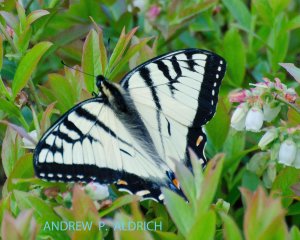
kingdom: Animalia
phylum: Arthropoda
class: Insecta
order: Lepidoptera
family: Papilionidae
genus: Pterourus
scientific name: Pterourus canadensis
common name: Canadian Tiger Swallowtail
